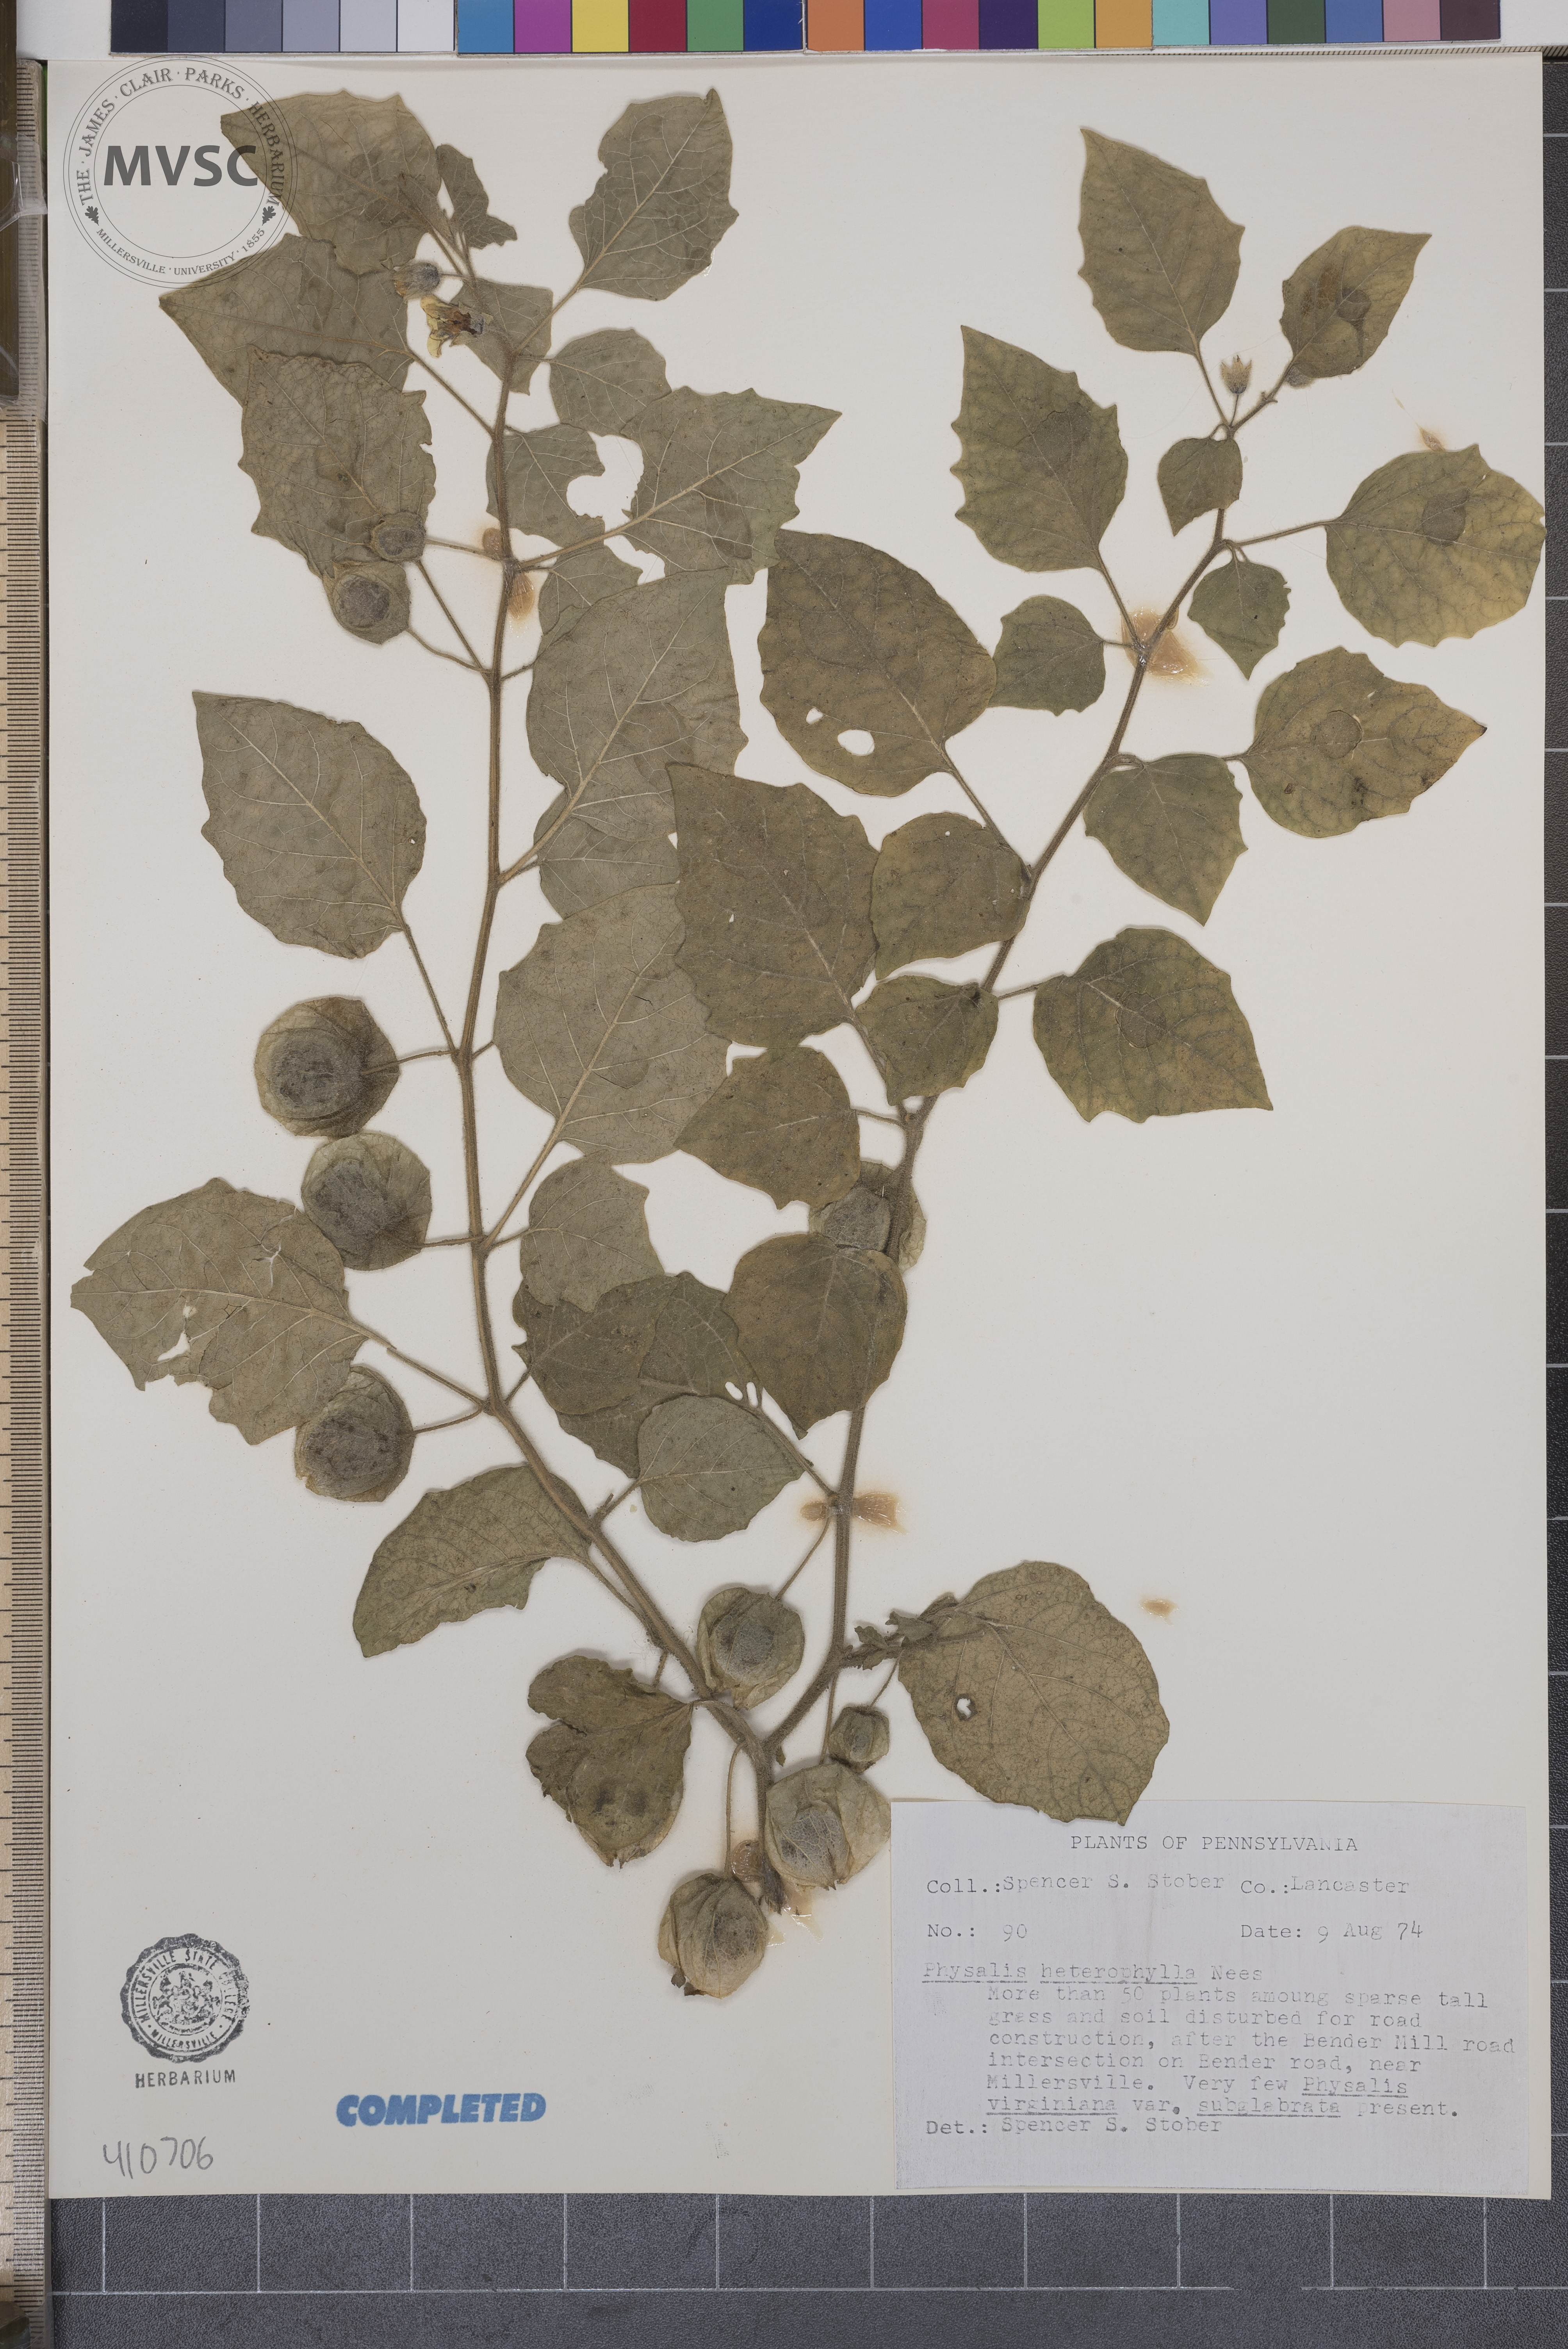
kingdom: Plantae
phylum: Tracheophyta
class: Magnoliopsida
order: Solanales
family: Solanaceae
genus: Physalis
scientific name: Physalis heterophylla
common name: Clammy ground-cherry
